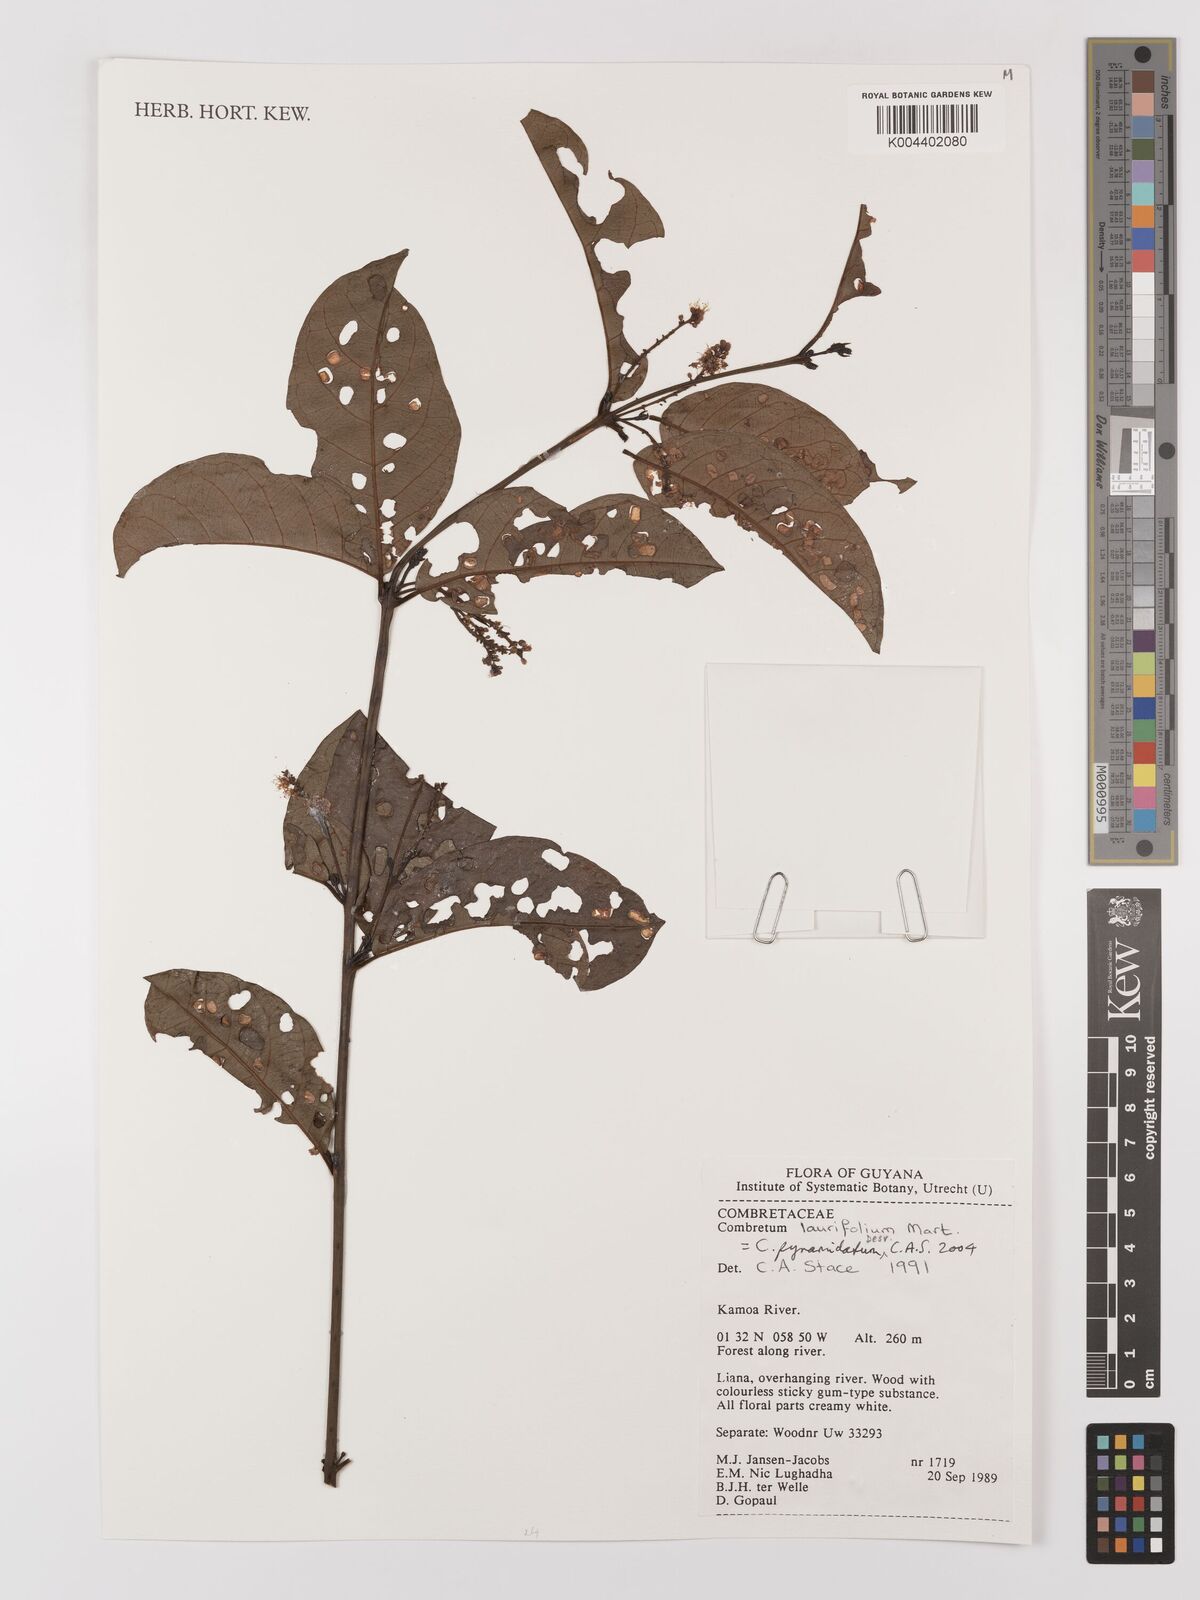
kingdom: Plantae
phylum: Tracheophyta
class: Magnoliopsida
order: Myrtales
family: Combretaceae
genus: Combretum
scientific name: Combretum
